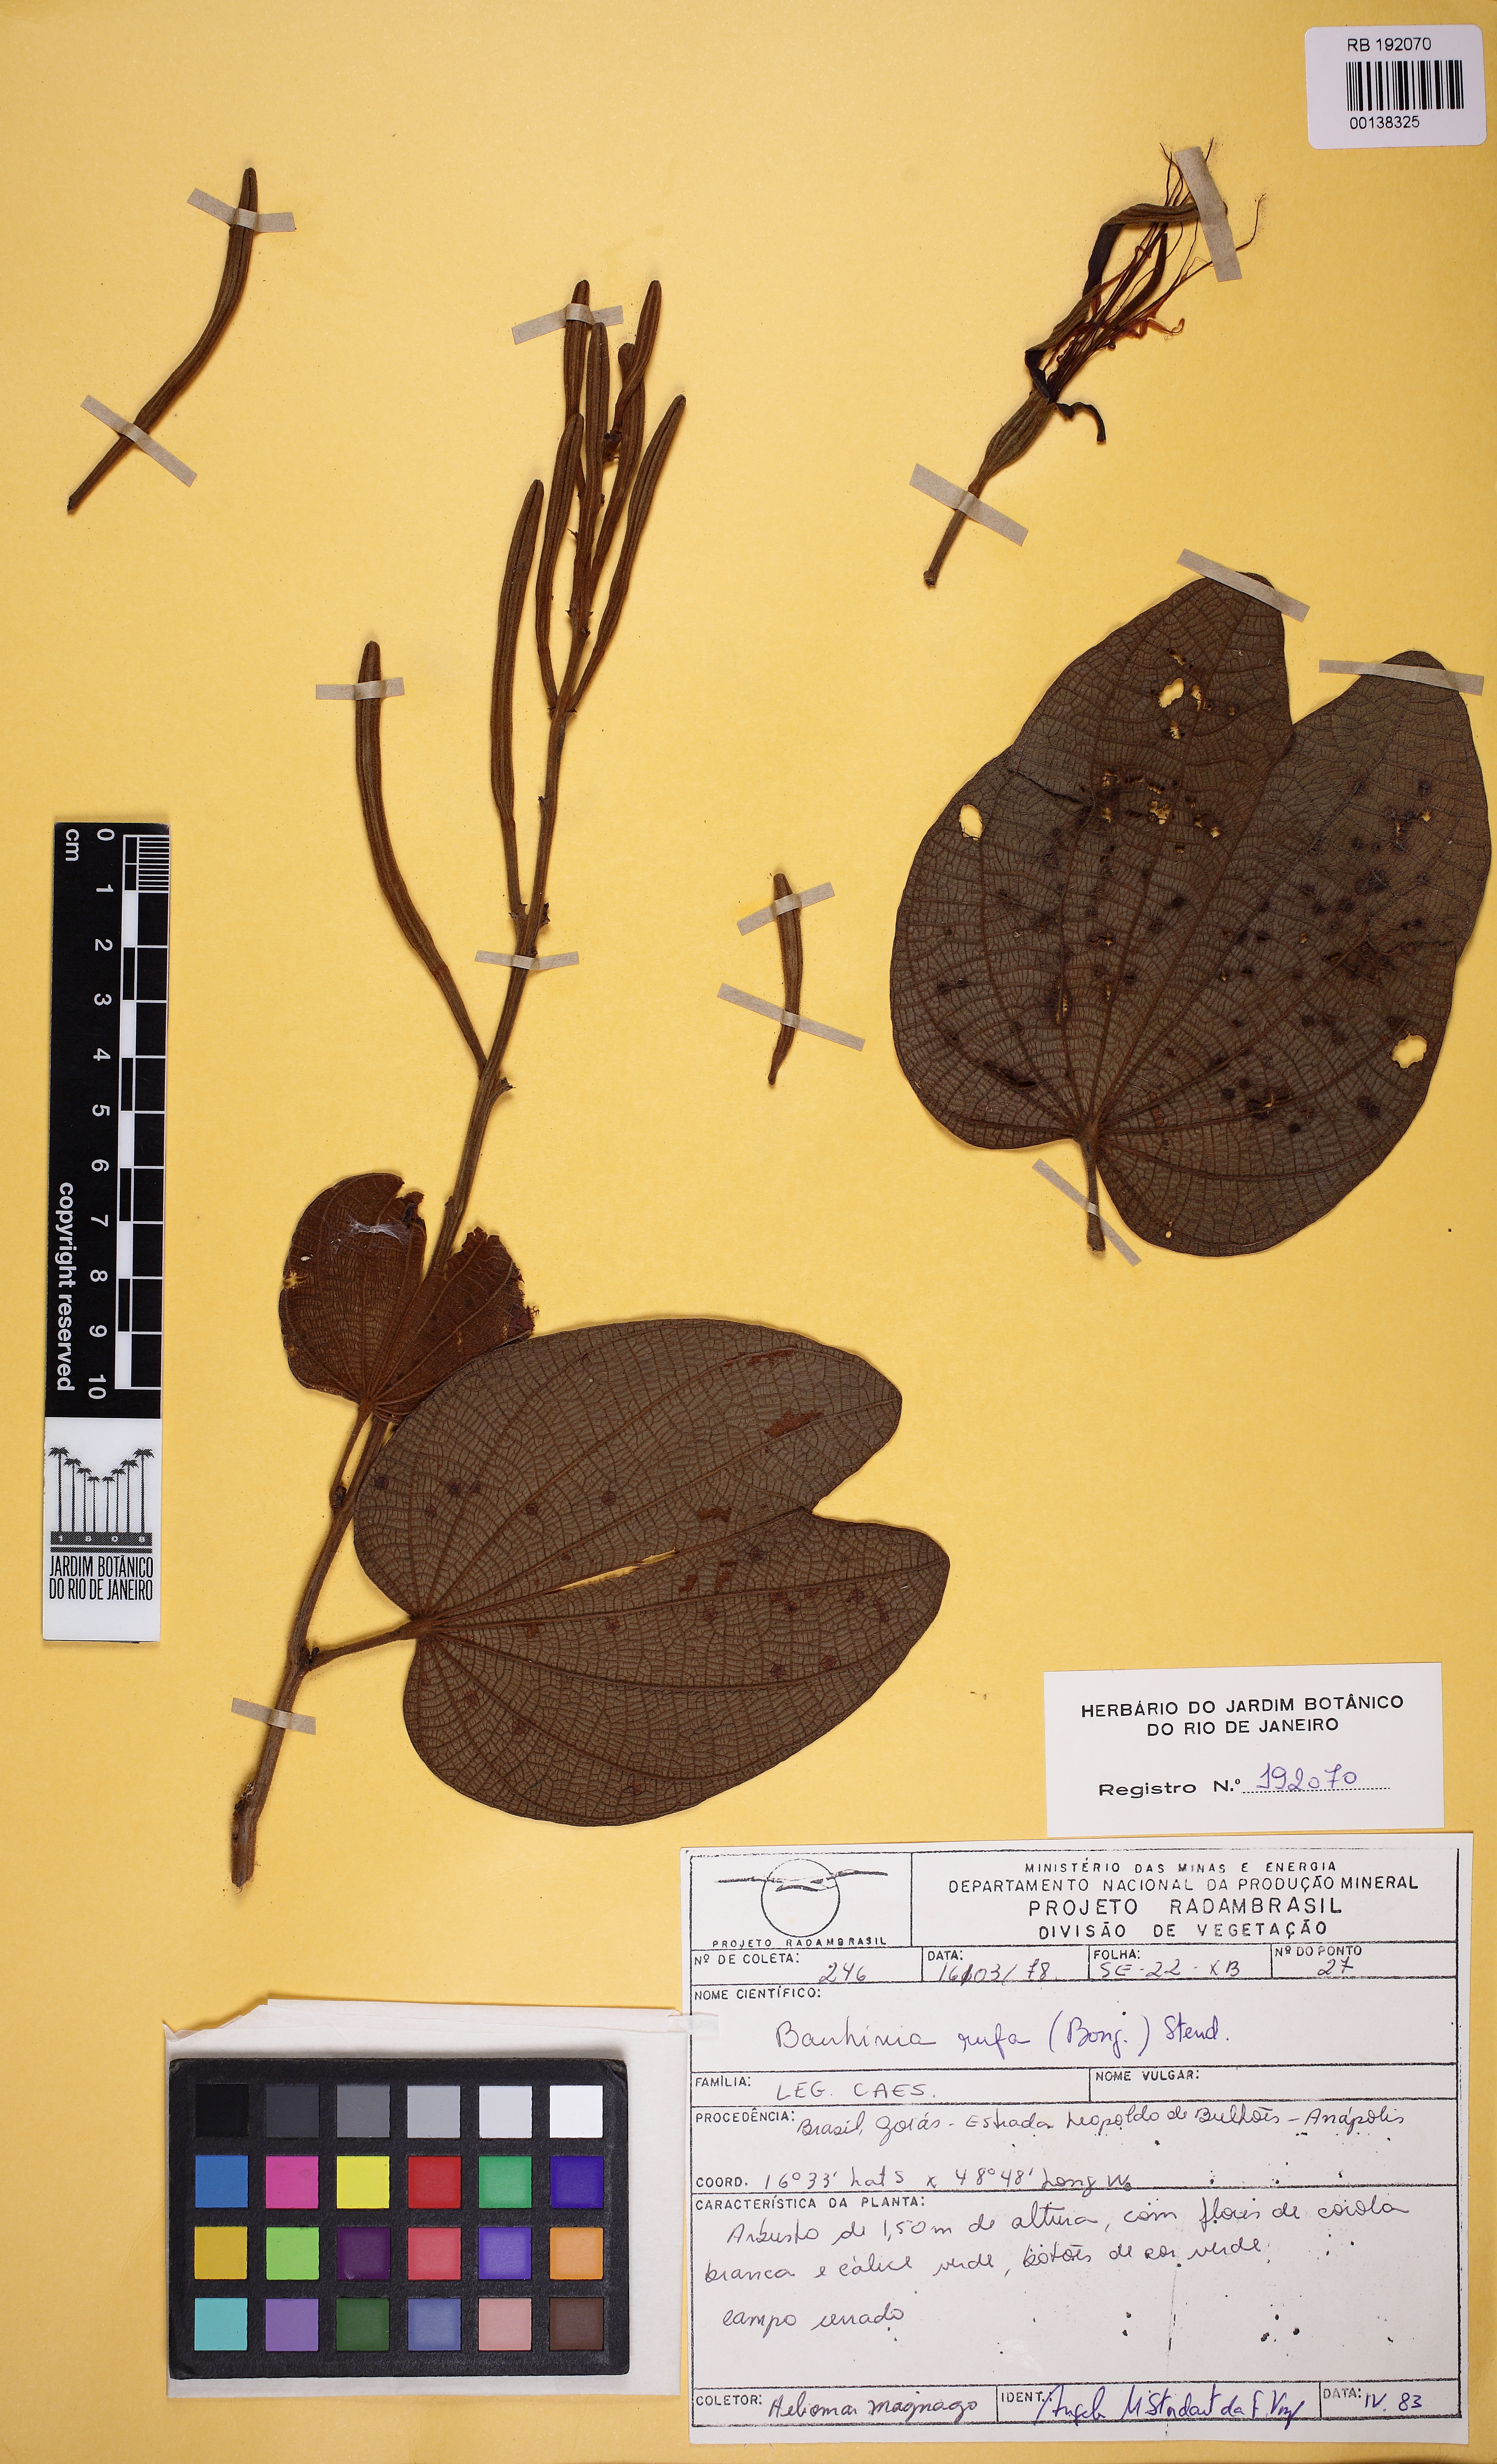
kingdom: Plantae
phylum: Tracheophyta
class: Magnoliopsida
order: Fabales
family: Fabaceae
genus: Bauhinia
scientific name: Bauhinia rufa
